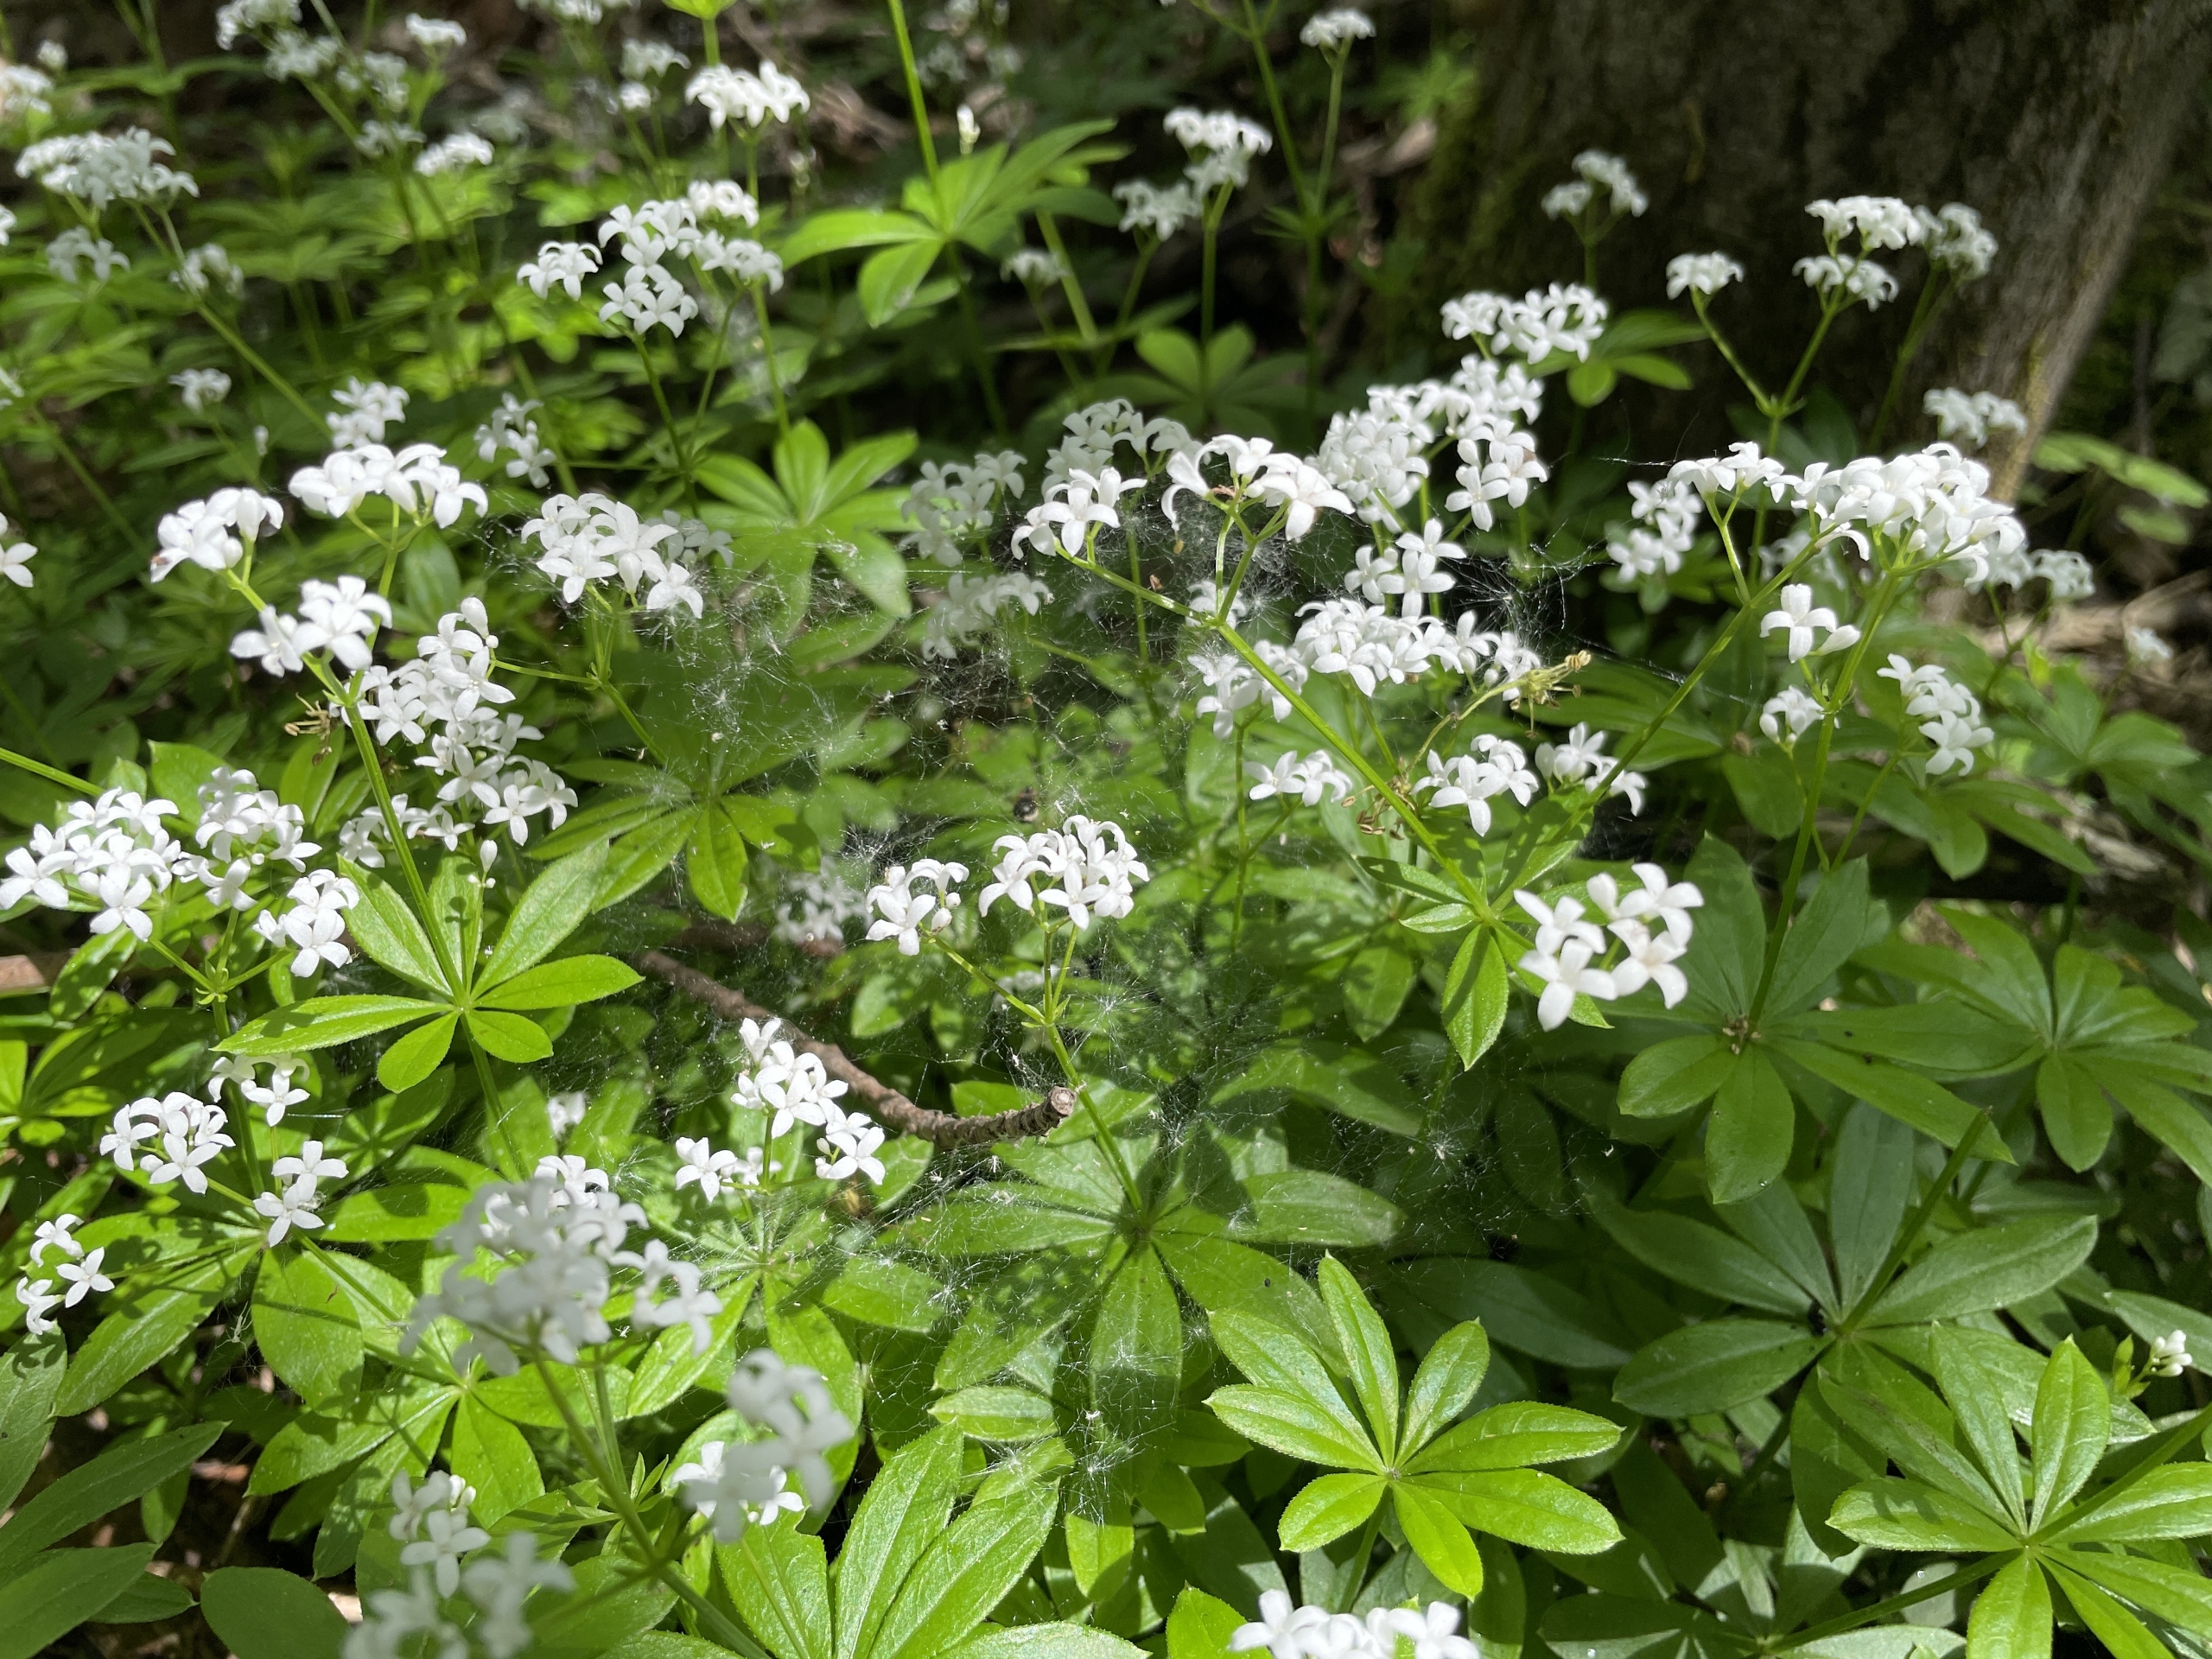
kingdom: Plantae
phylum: Tracheophyta
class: Magnoliopsida
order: Gentianales
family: Rubiaceae
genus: Galium
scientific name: Galium odoratum
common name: Skovmærke
